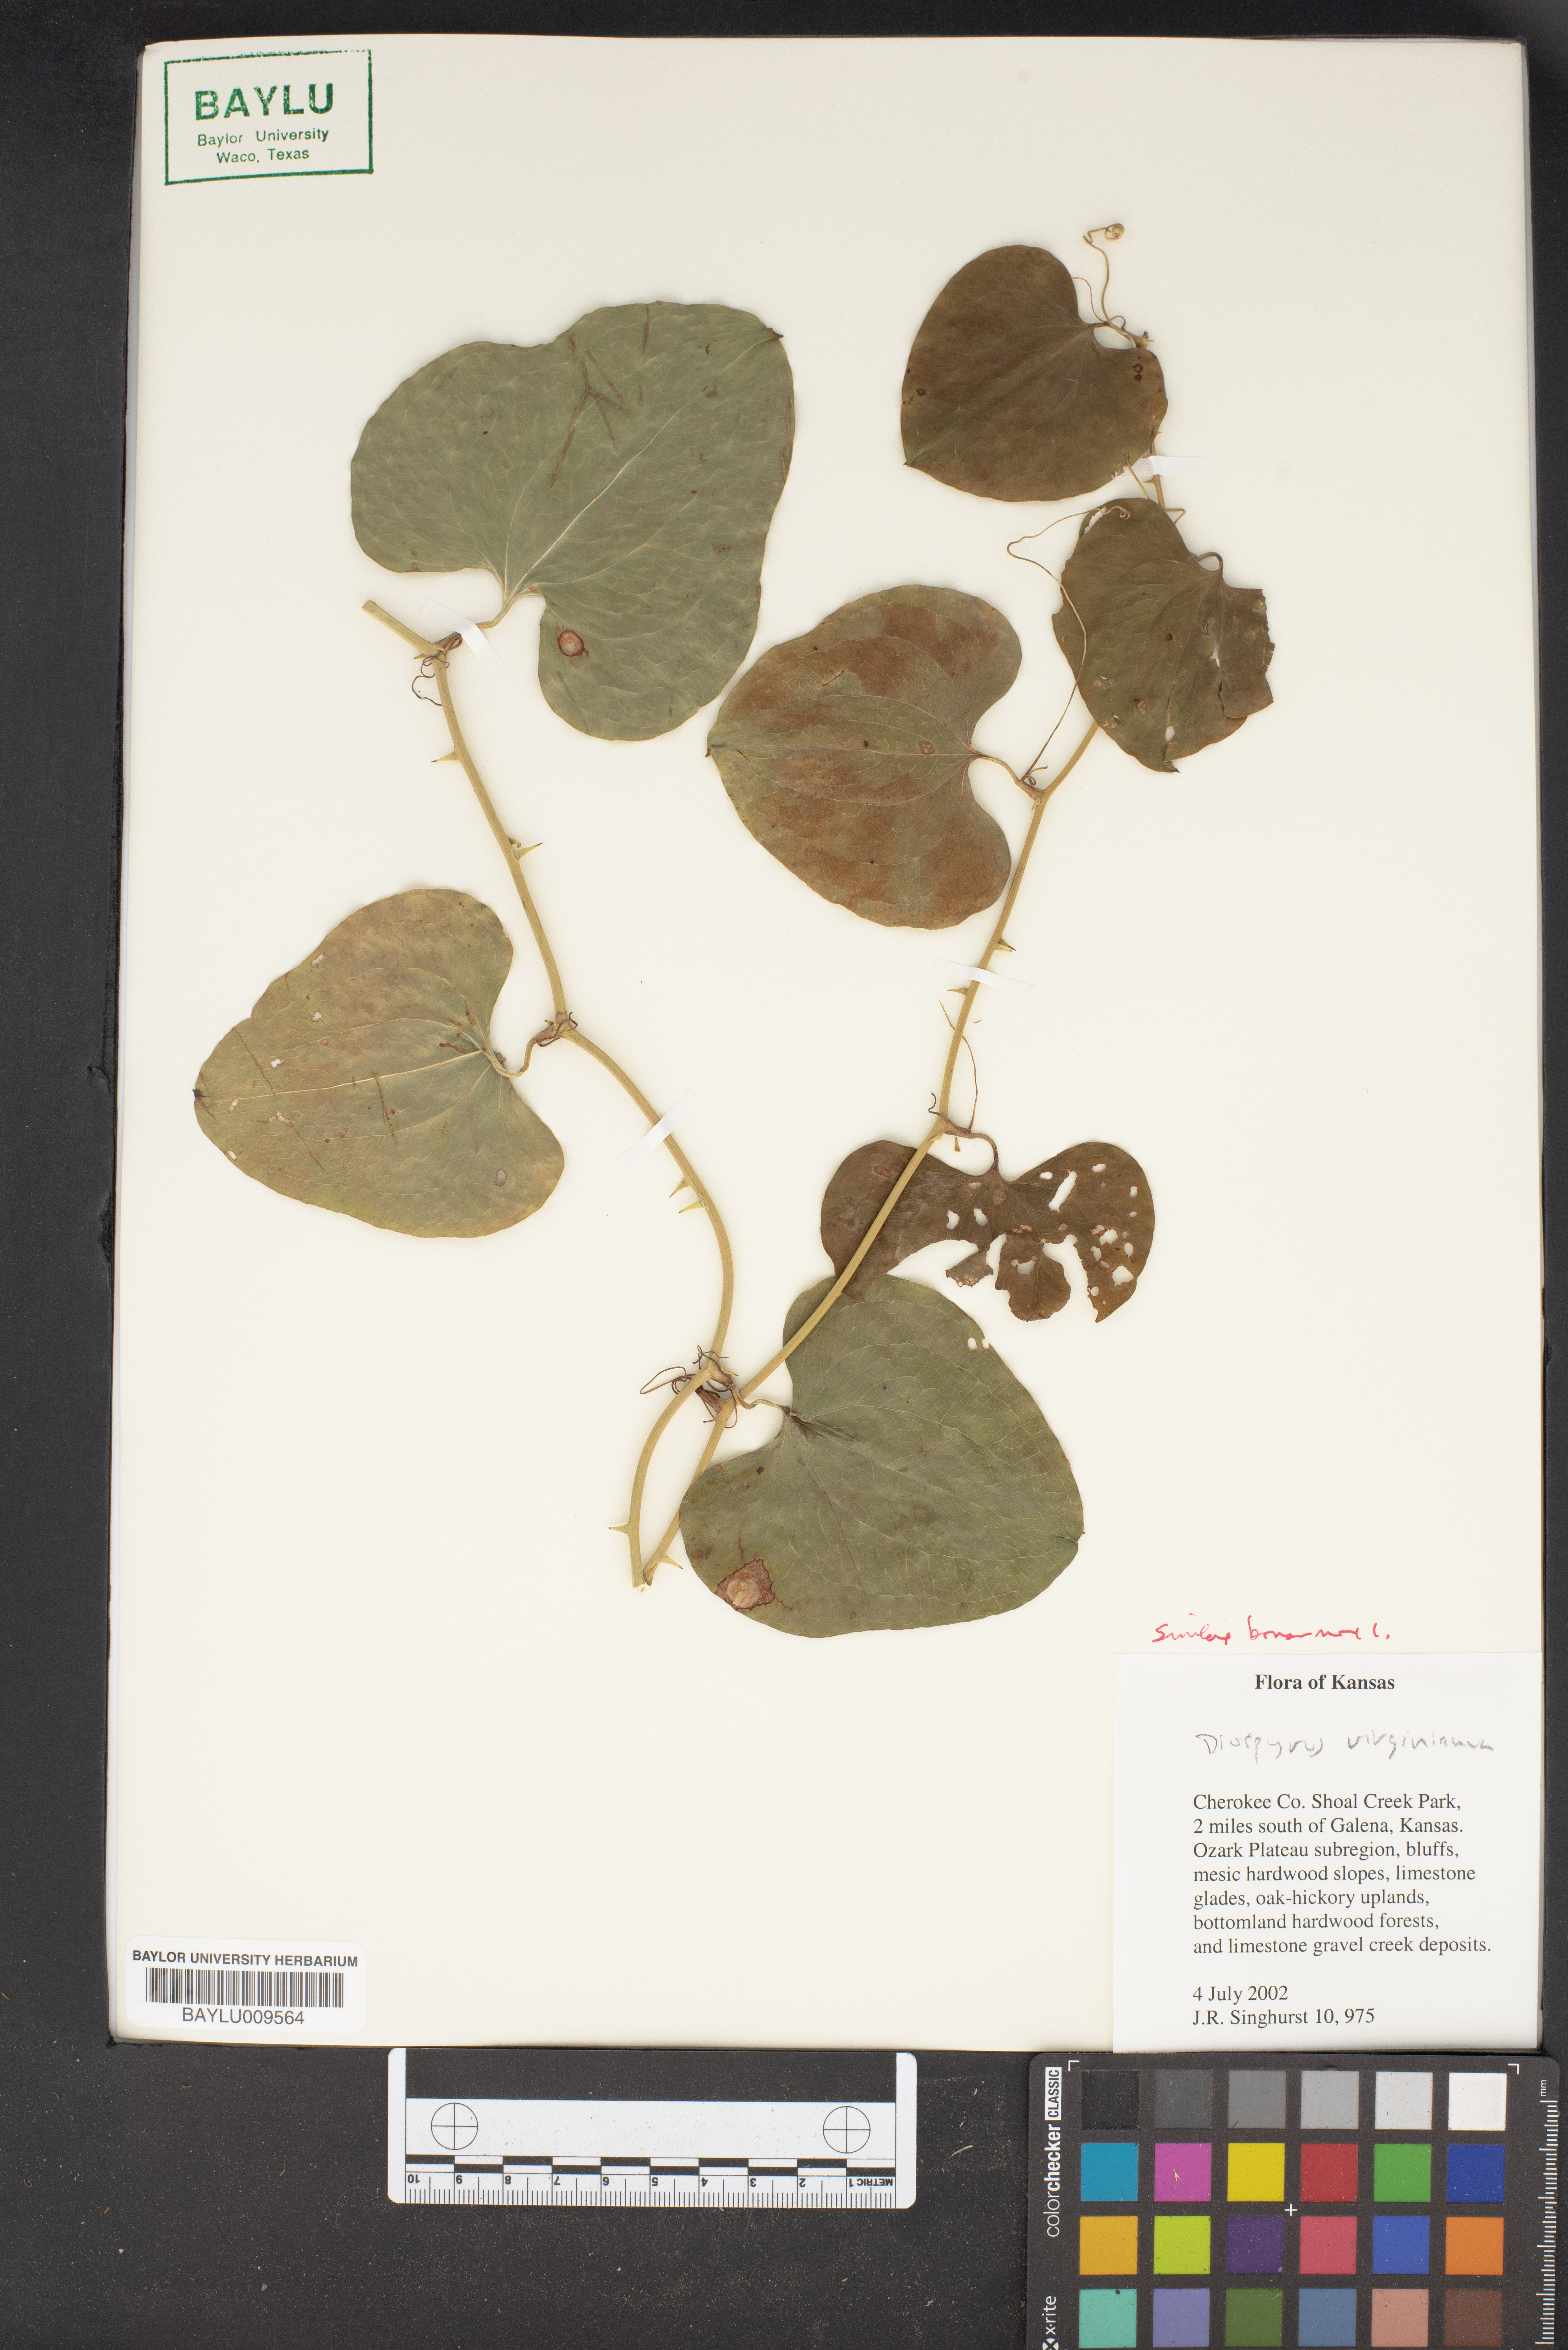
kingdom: Plantae
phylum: Tracheophyta
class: Magnoliopsida
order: Ericales
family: Ebenaceae
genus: Diospyros
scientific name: Diospyros virginiana
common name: Persimmon
